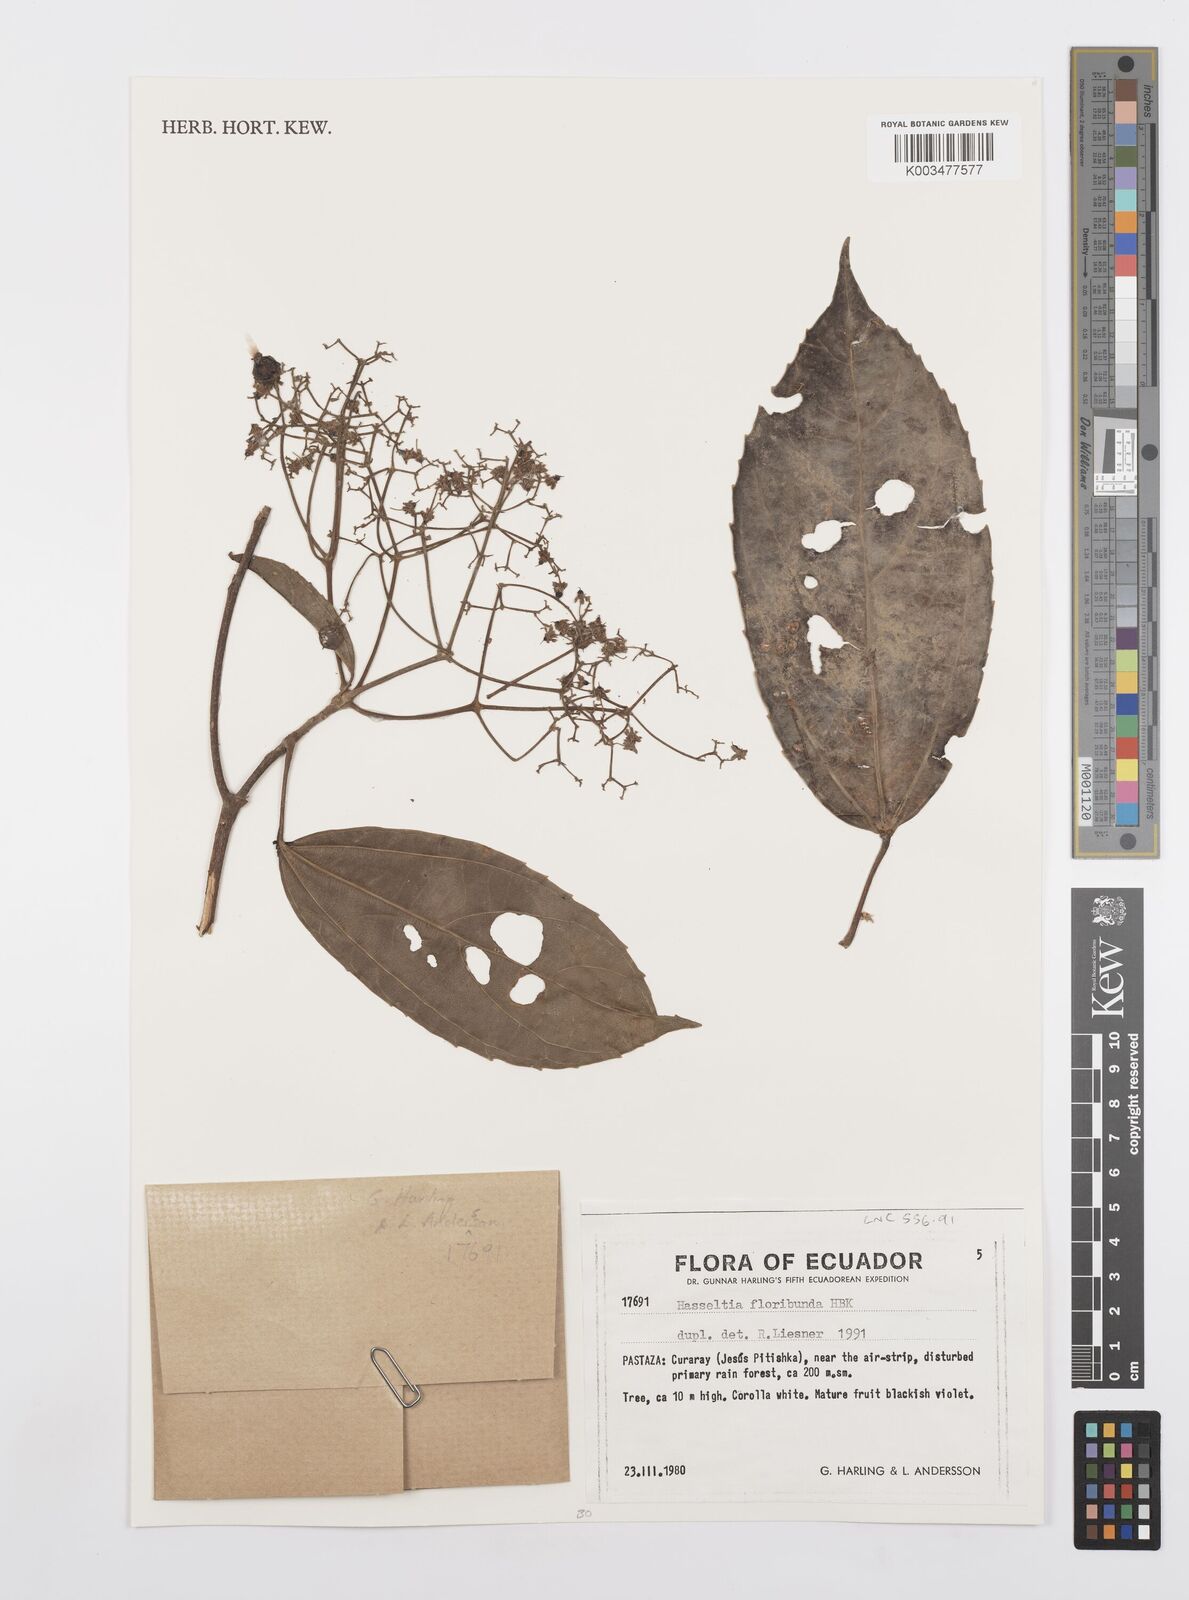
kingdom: Plantae
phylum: Tracheophyta
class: Magnoliopsida
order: Malpighiales
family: Salicaceae
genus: Hasseltia
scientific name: Hasseltia floribunda
